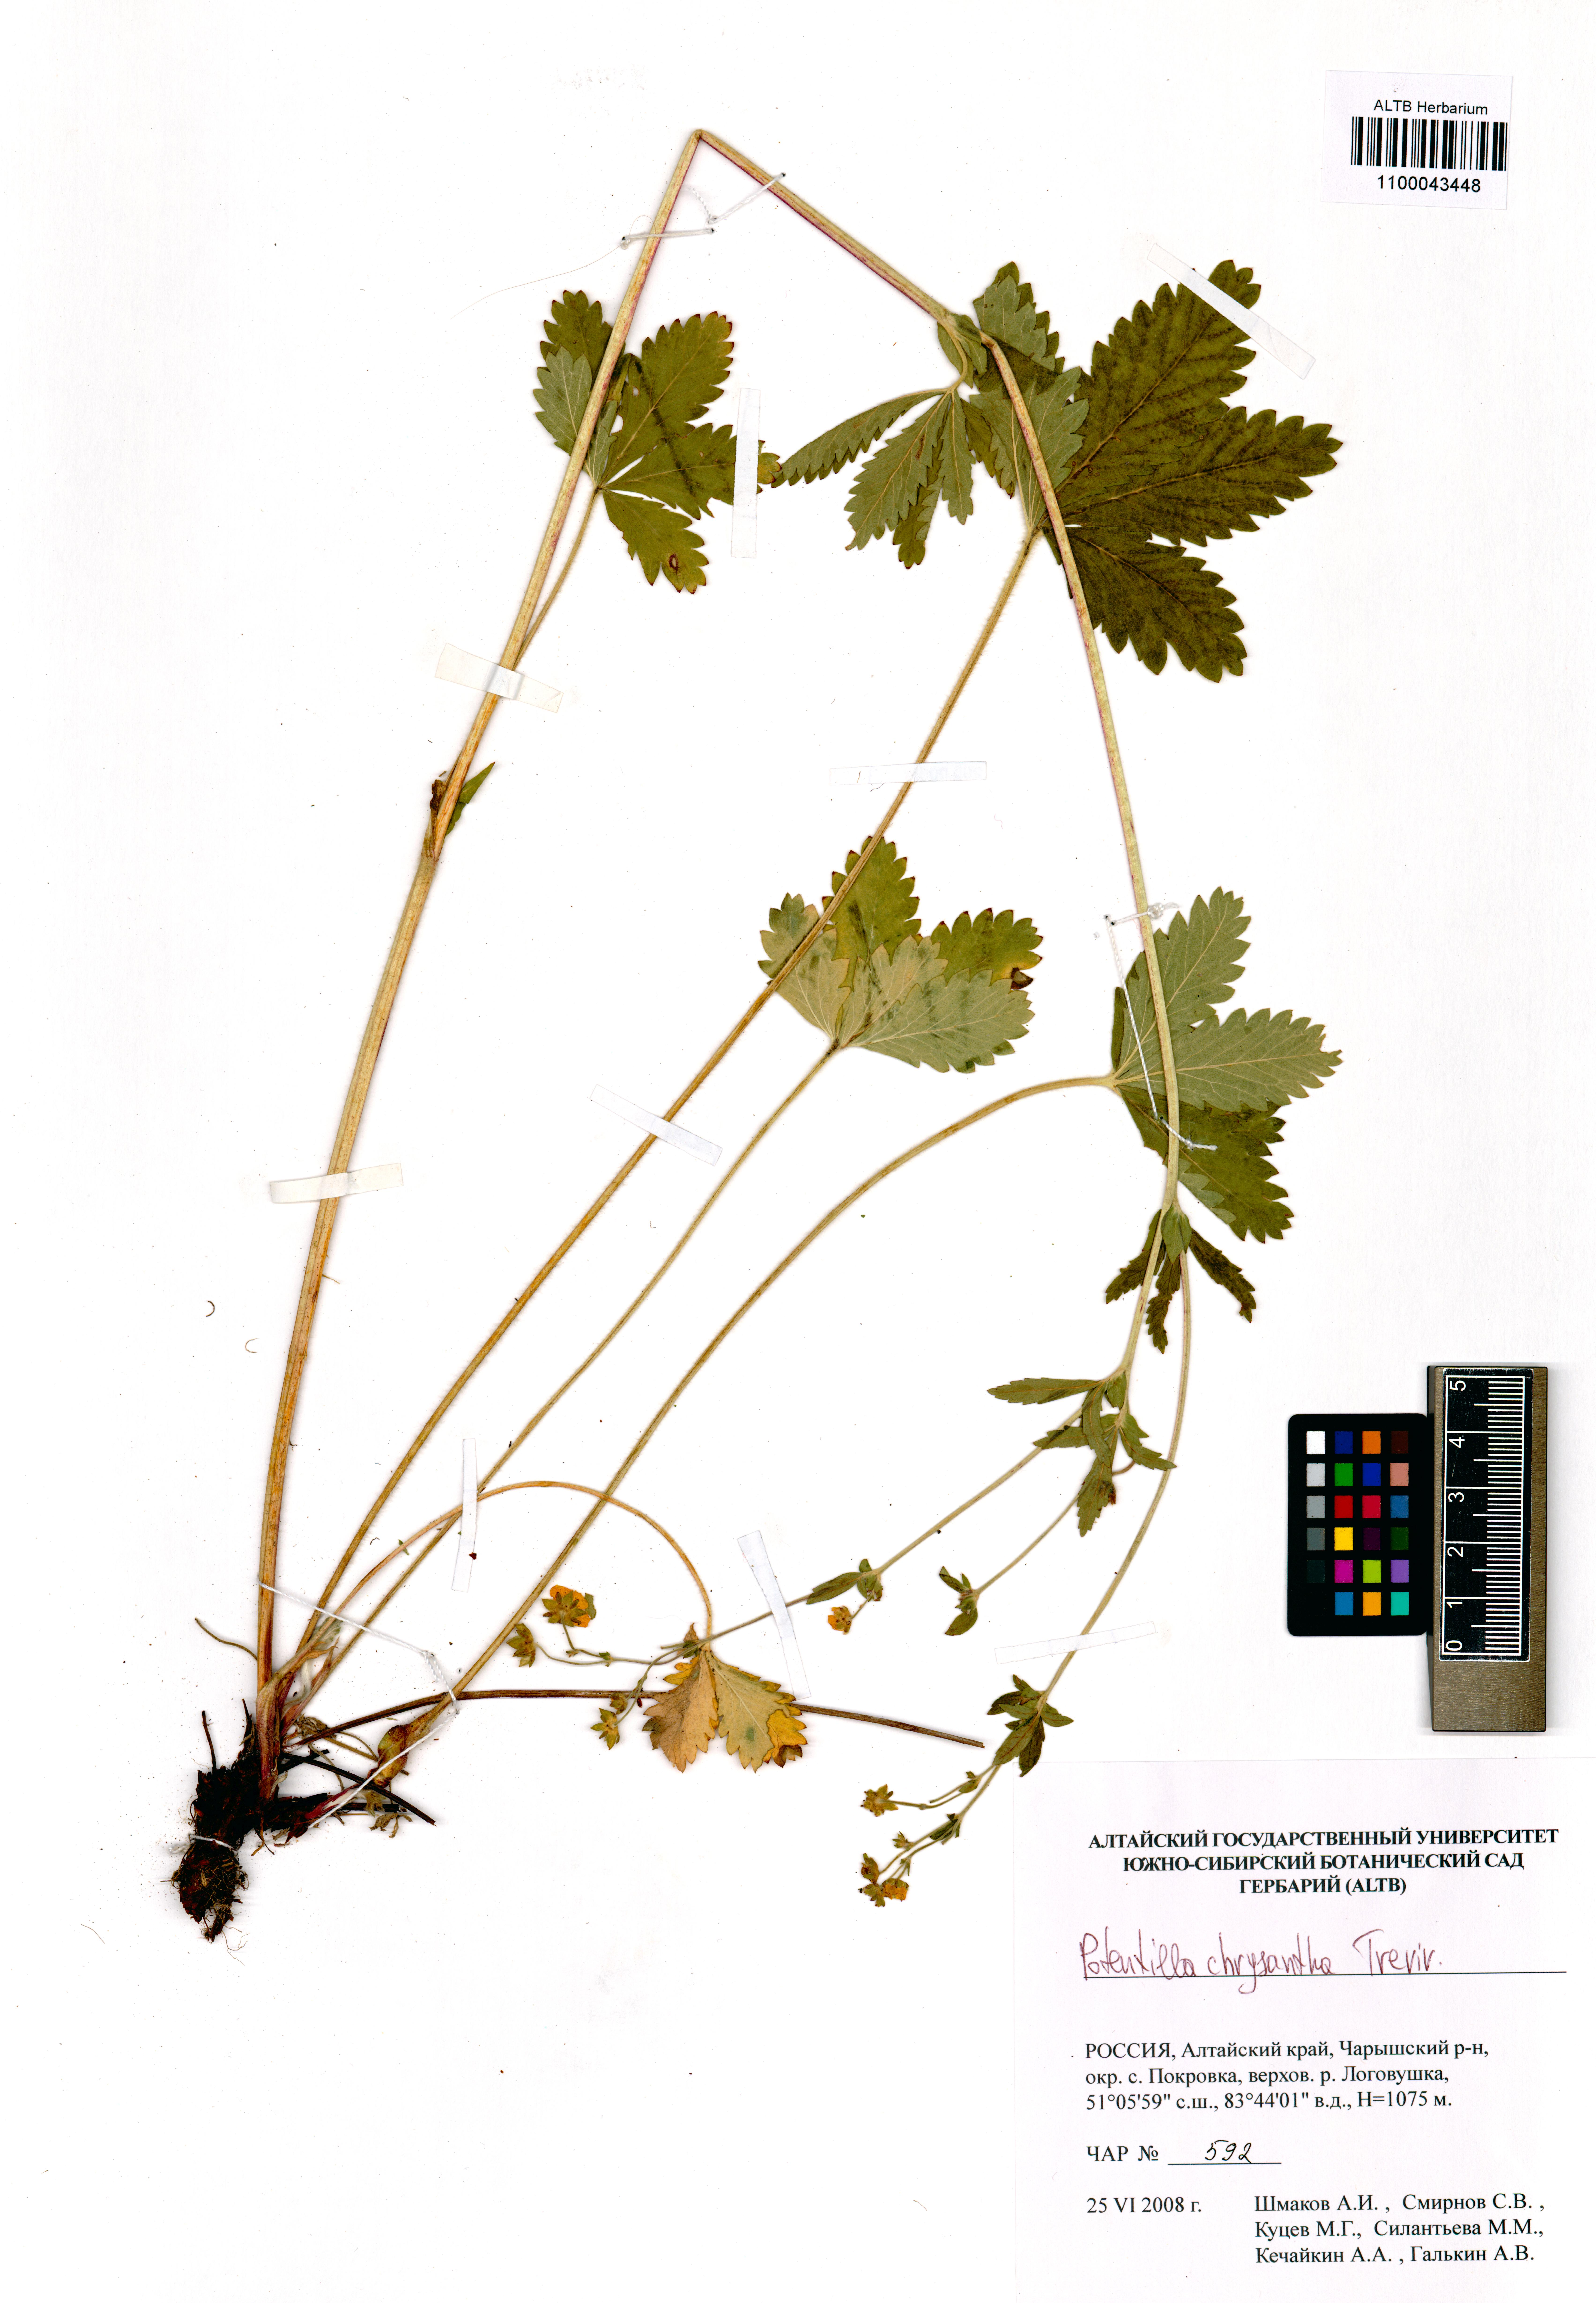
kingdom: Plantae
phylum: Tracheophyta
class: Magnoliopsida
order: Rosales
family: Rosaceae
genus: Potentilla
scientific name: Potentilla chrysantha
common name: Thuringian cinquefoil
